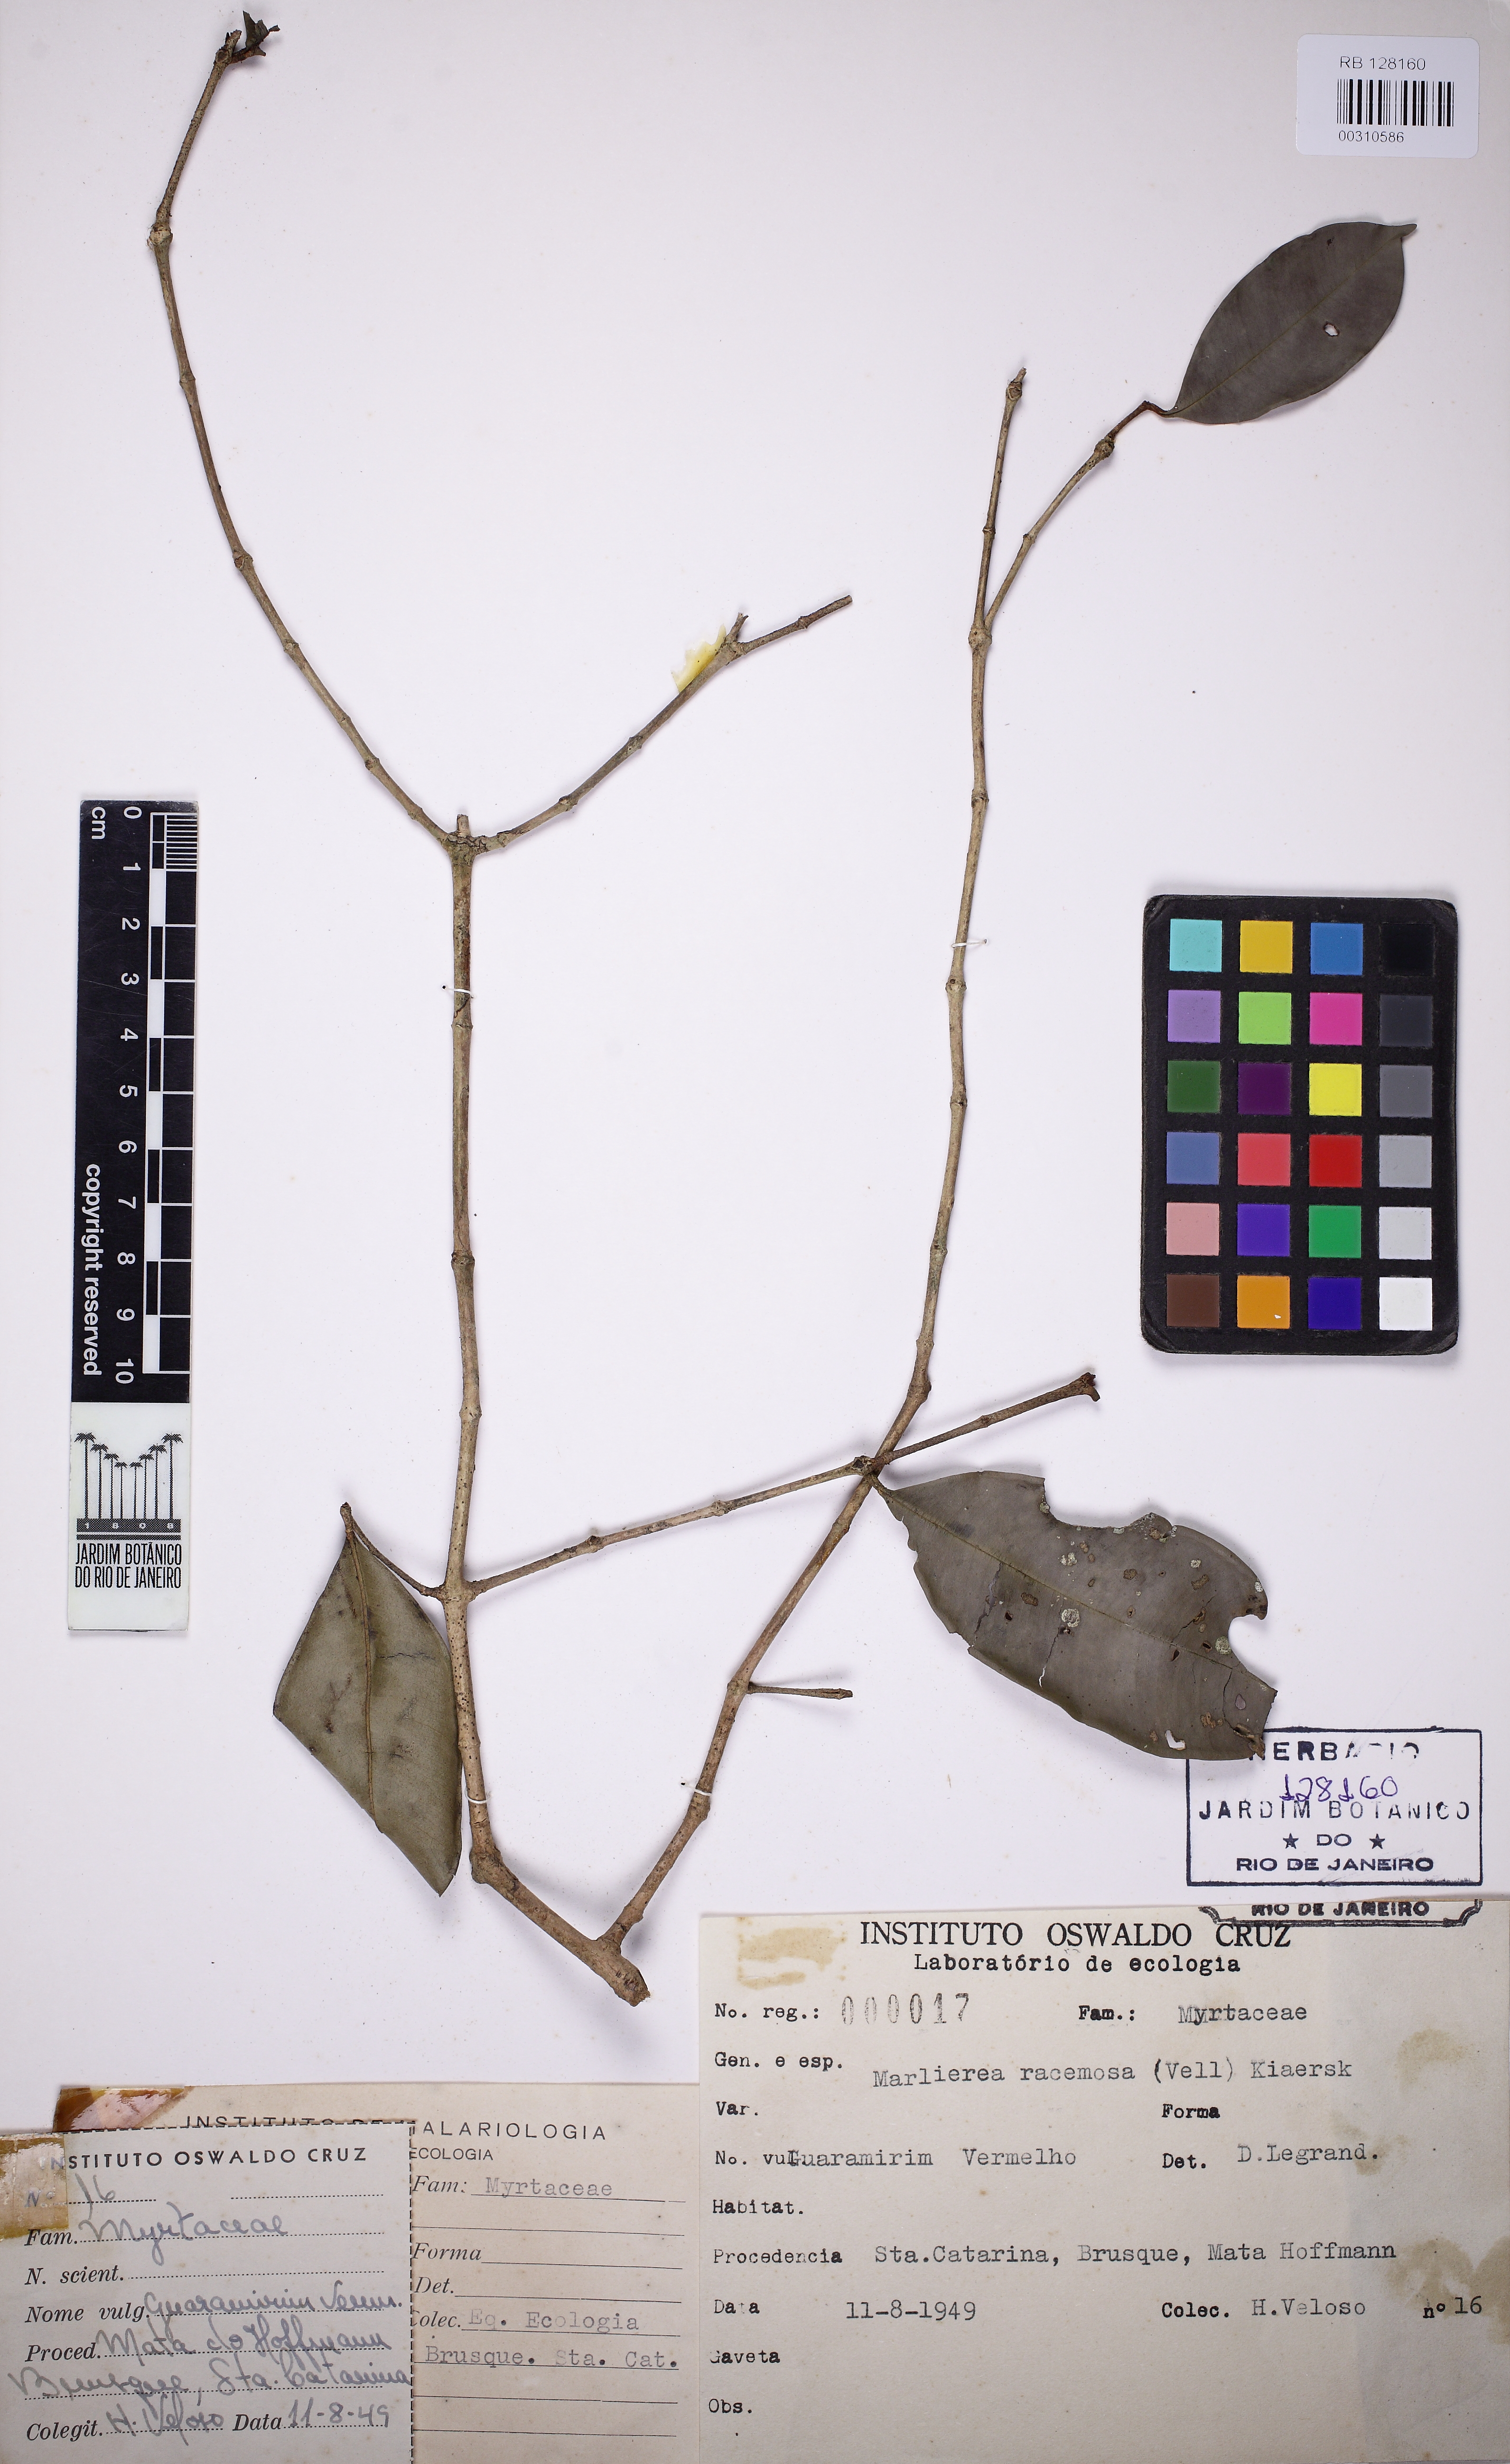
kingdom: Plantae
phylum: Tracheophyta
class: Magnoliopsida
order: Myrtales
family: Myrtaceae
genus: Myrcia
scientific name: Myrcia vellozoi
